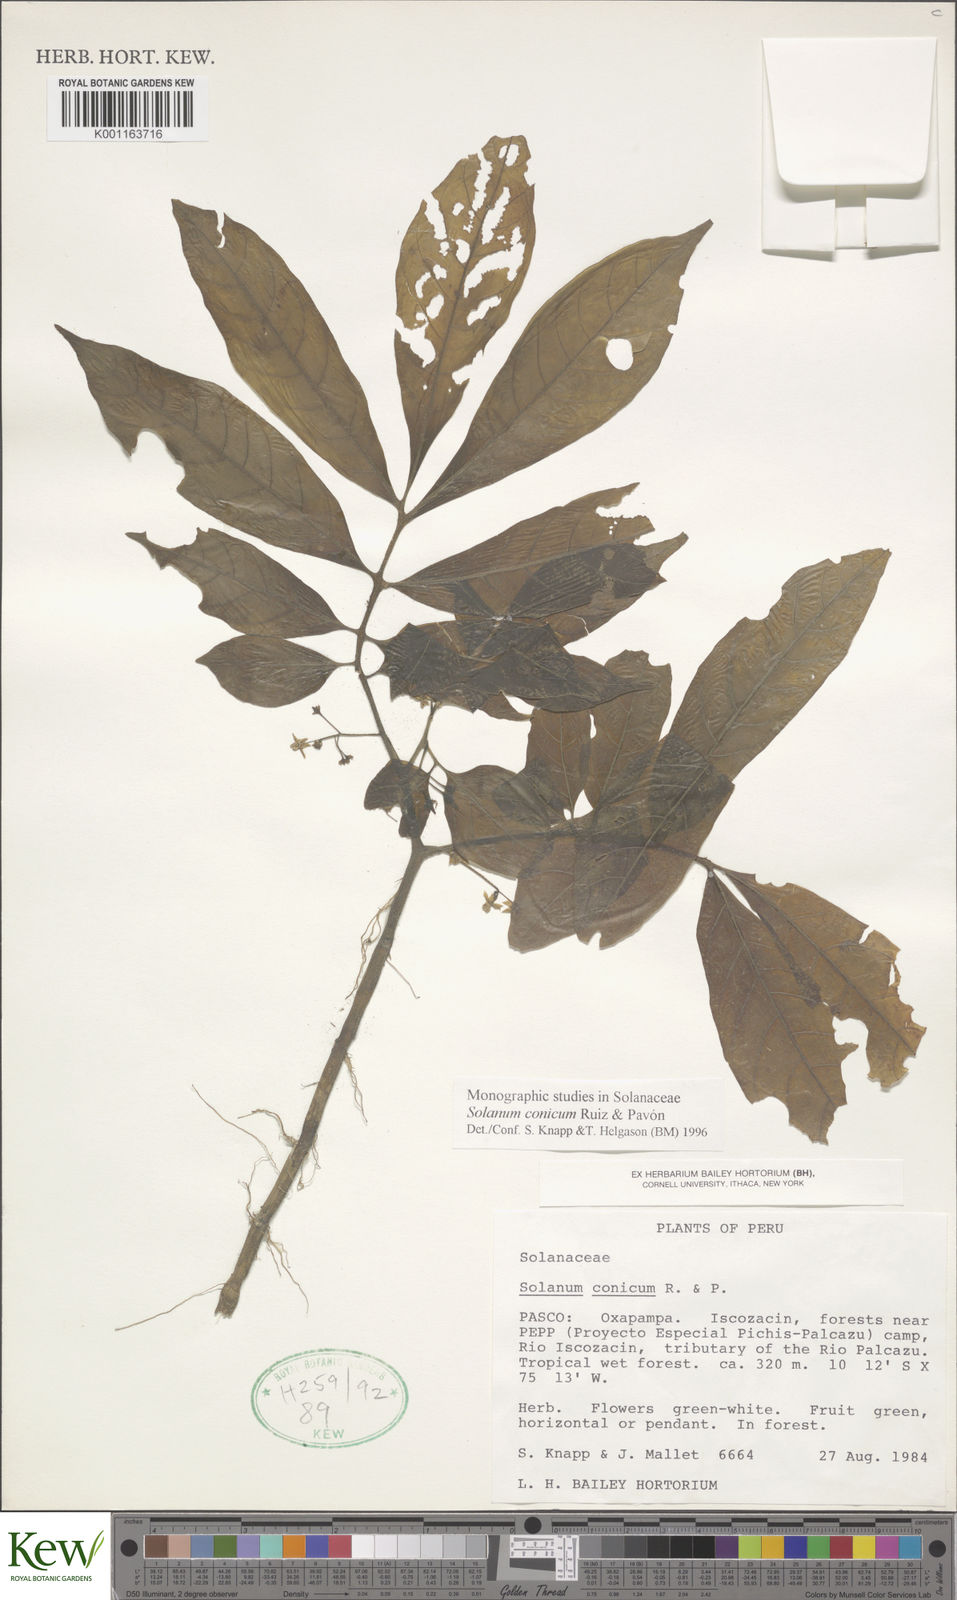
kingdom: Plantae
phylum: Tracheophyta
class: Magnoliopsida
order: Solanales
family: Solanaceae
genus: Solanum
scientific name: Solanum conicum
